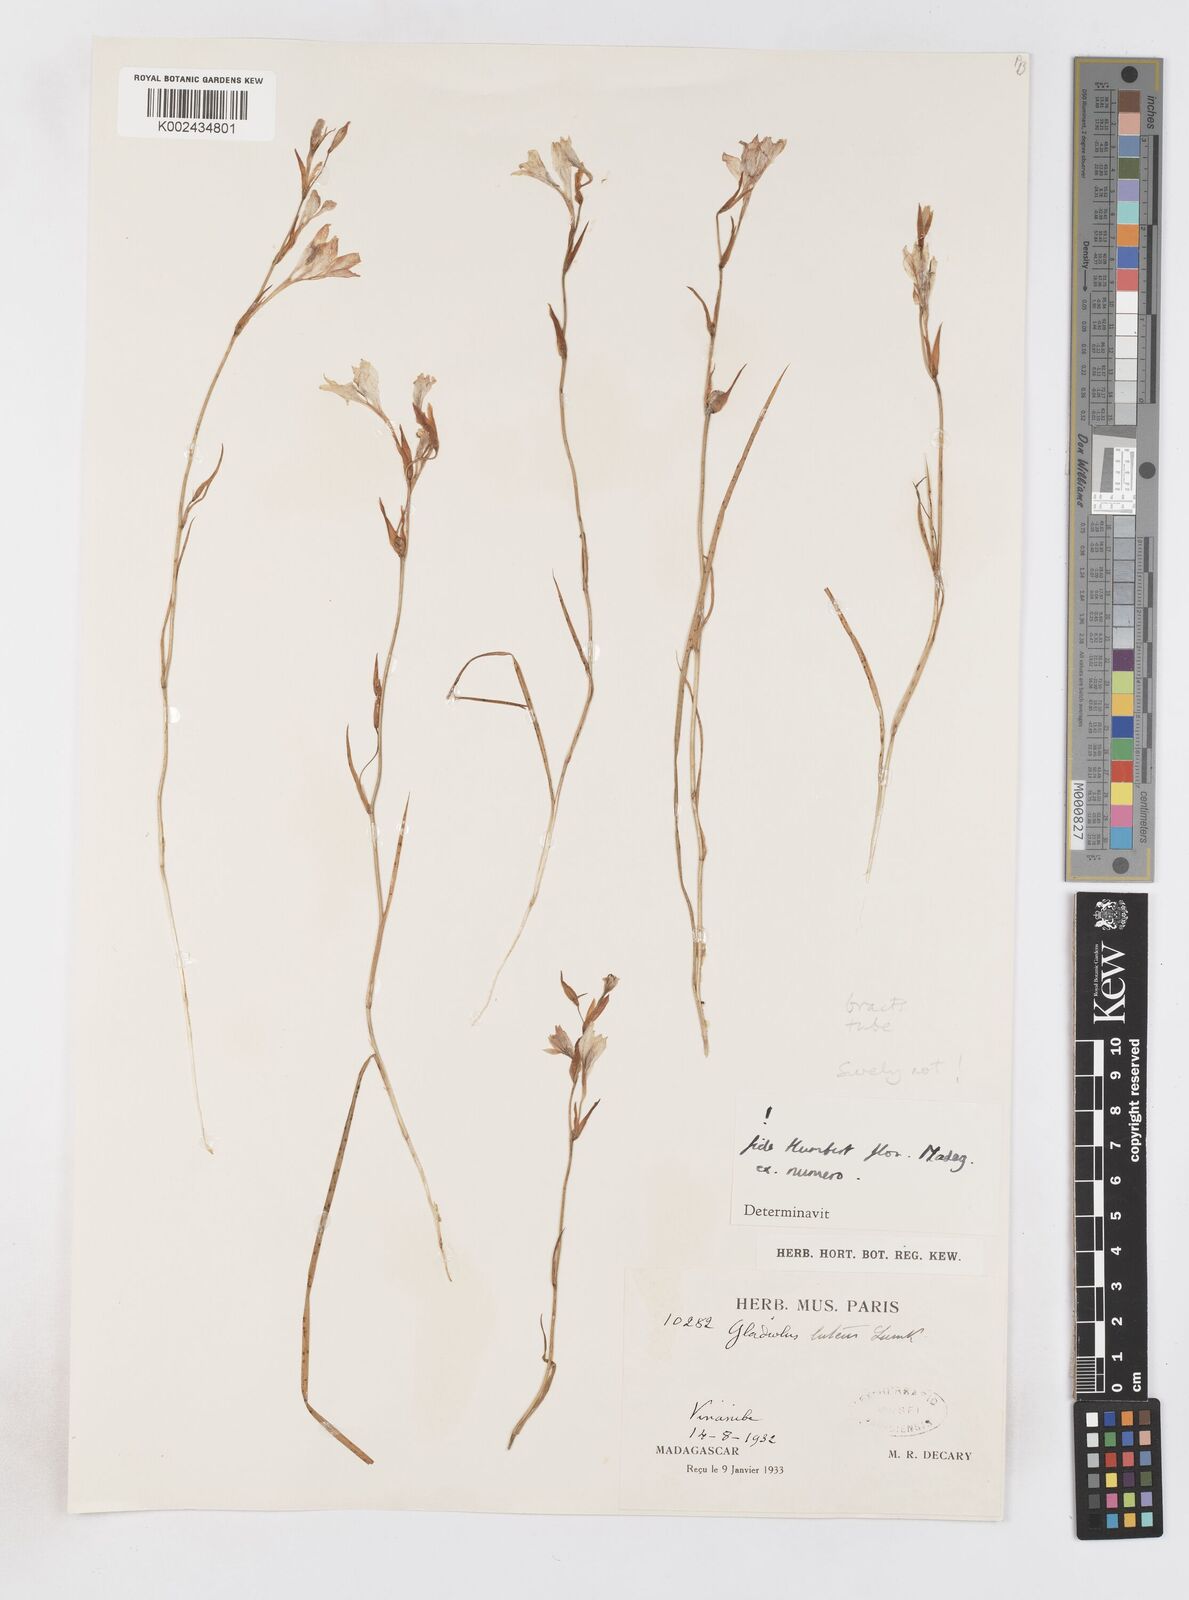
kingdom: Plantae
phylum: Tracheophyta
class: Liliopsida
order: Asparagales
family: Iridaceae
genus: Gladiolus
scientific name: Gladiolus
